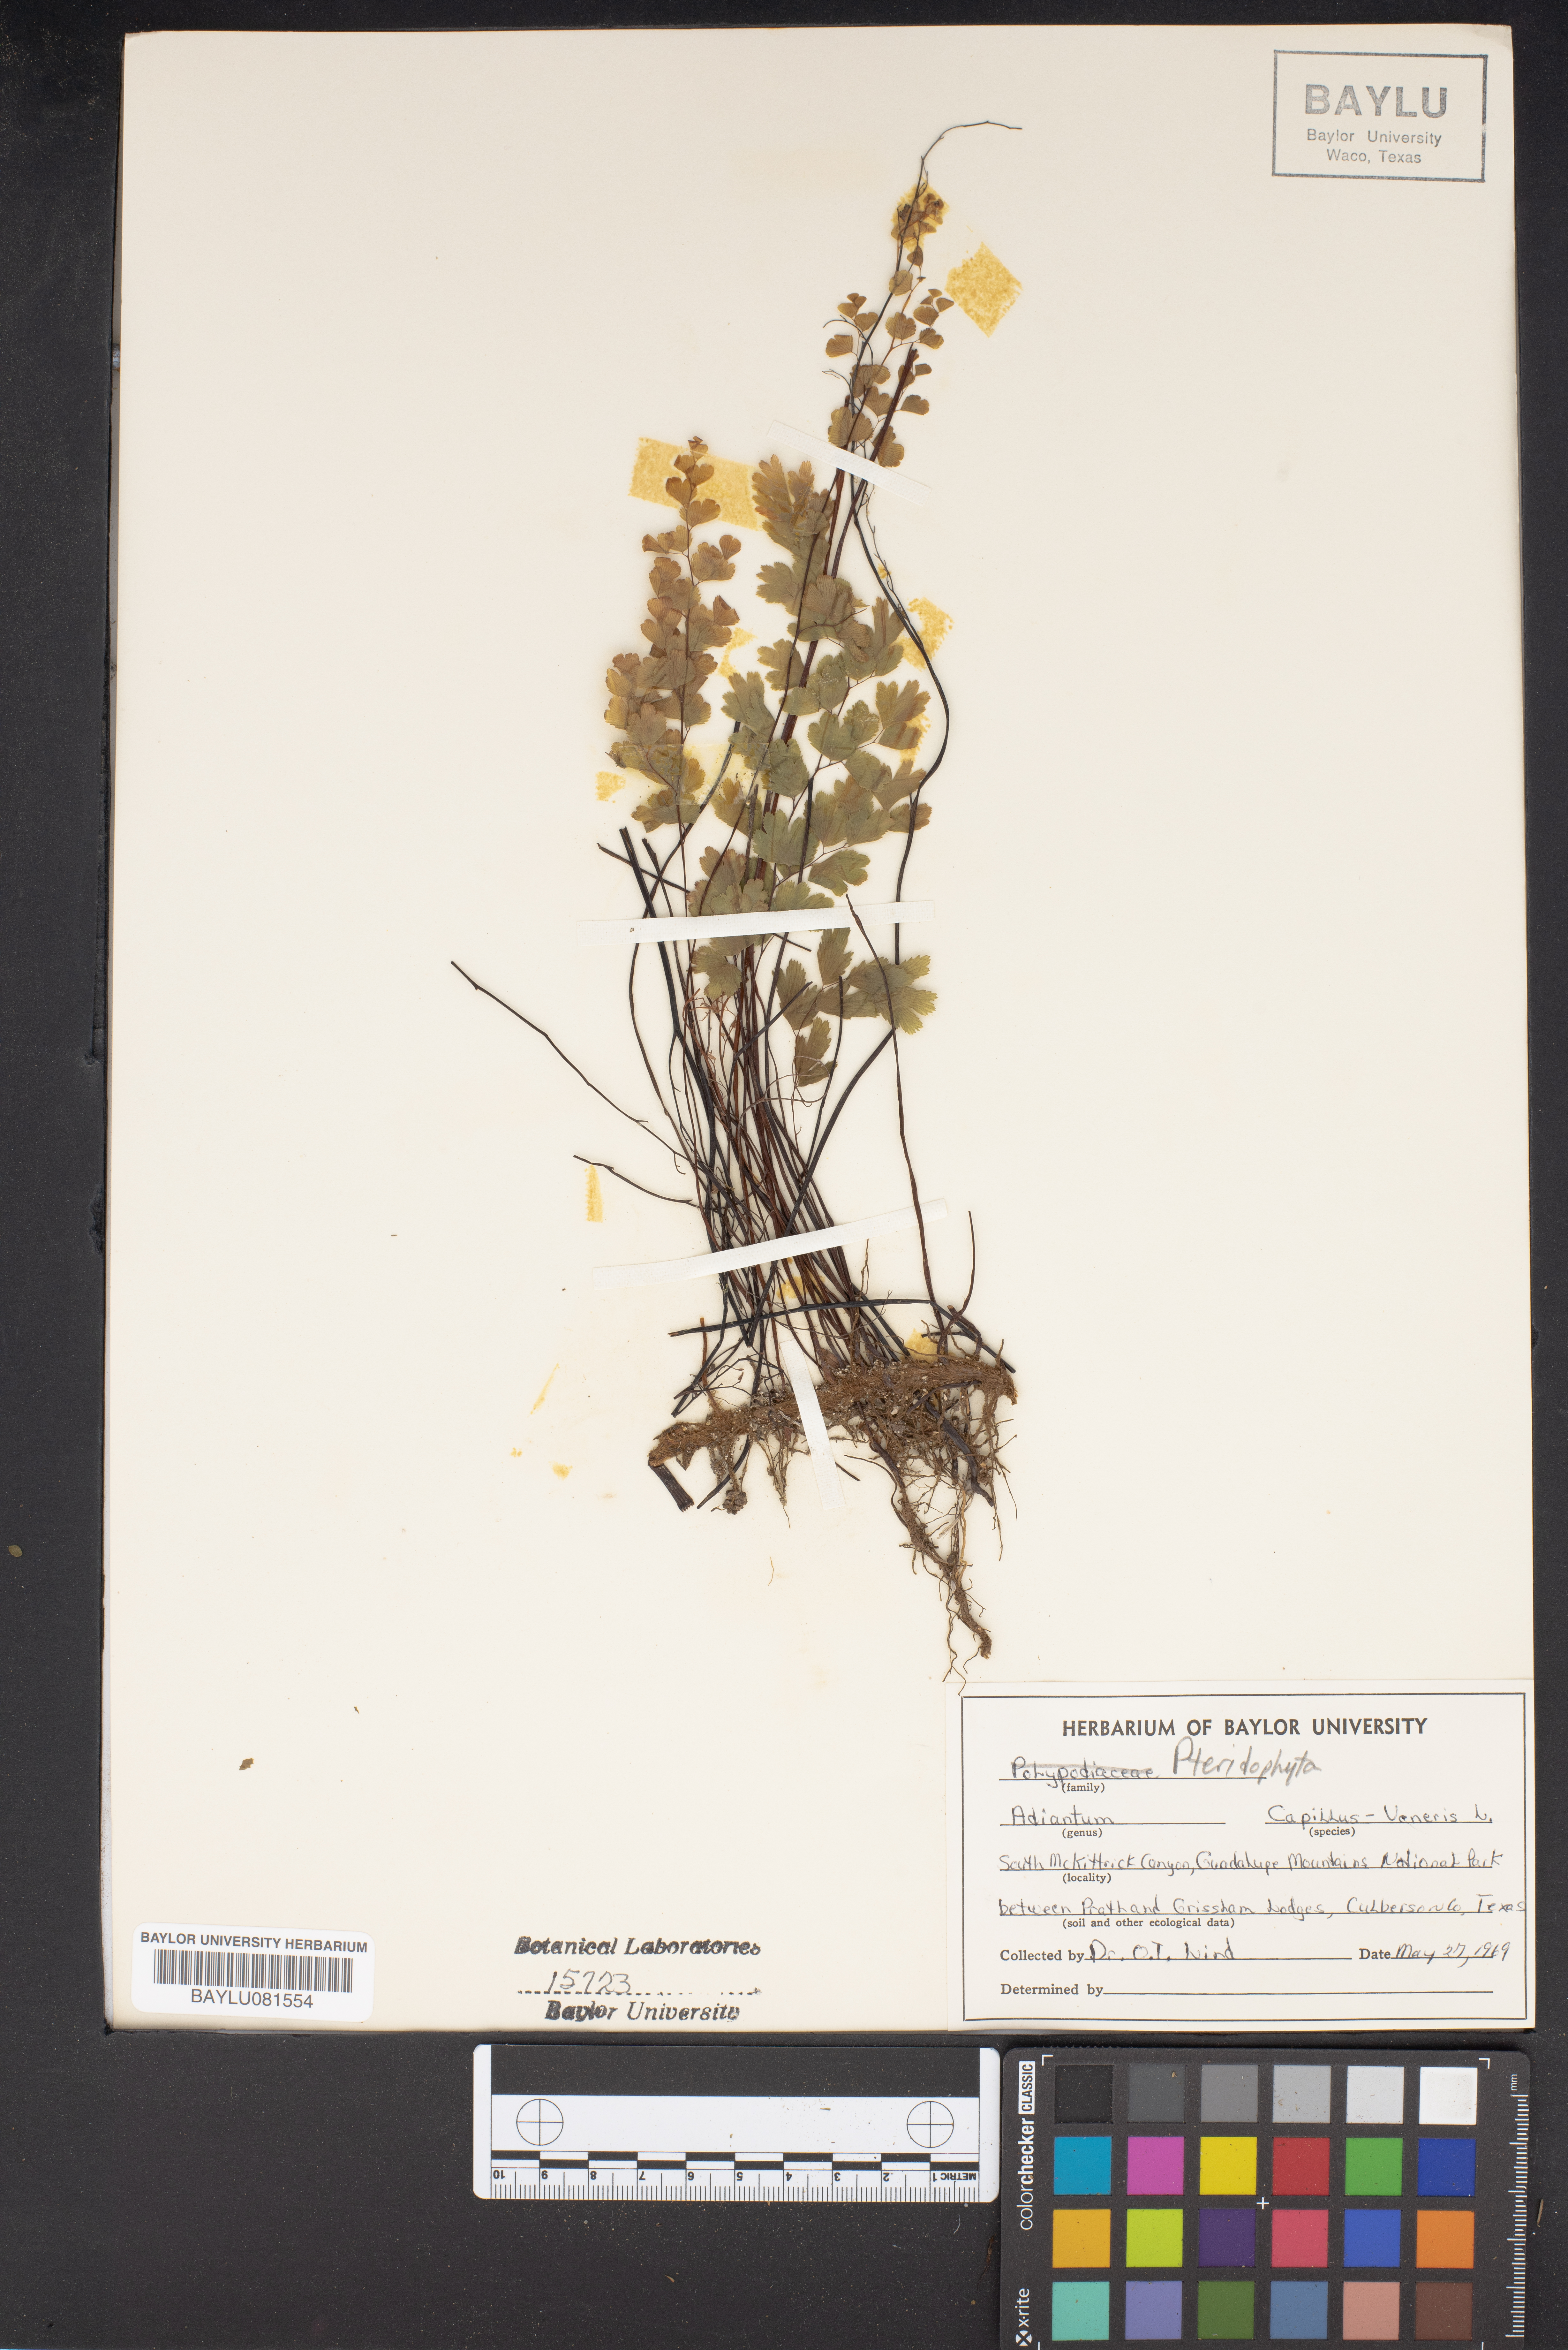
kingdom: Plantae
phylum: Tracheophyta
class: Polypodiopsida
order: Polypodiales
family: Pteridaceae
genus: Adiantum
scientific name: Adiantum capillus
